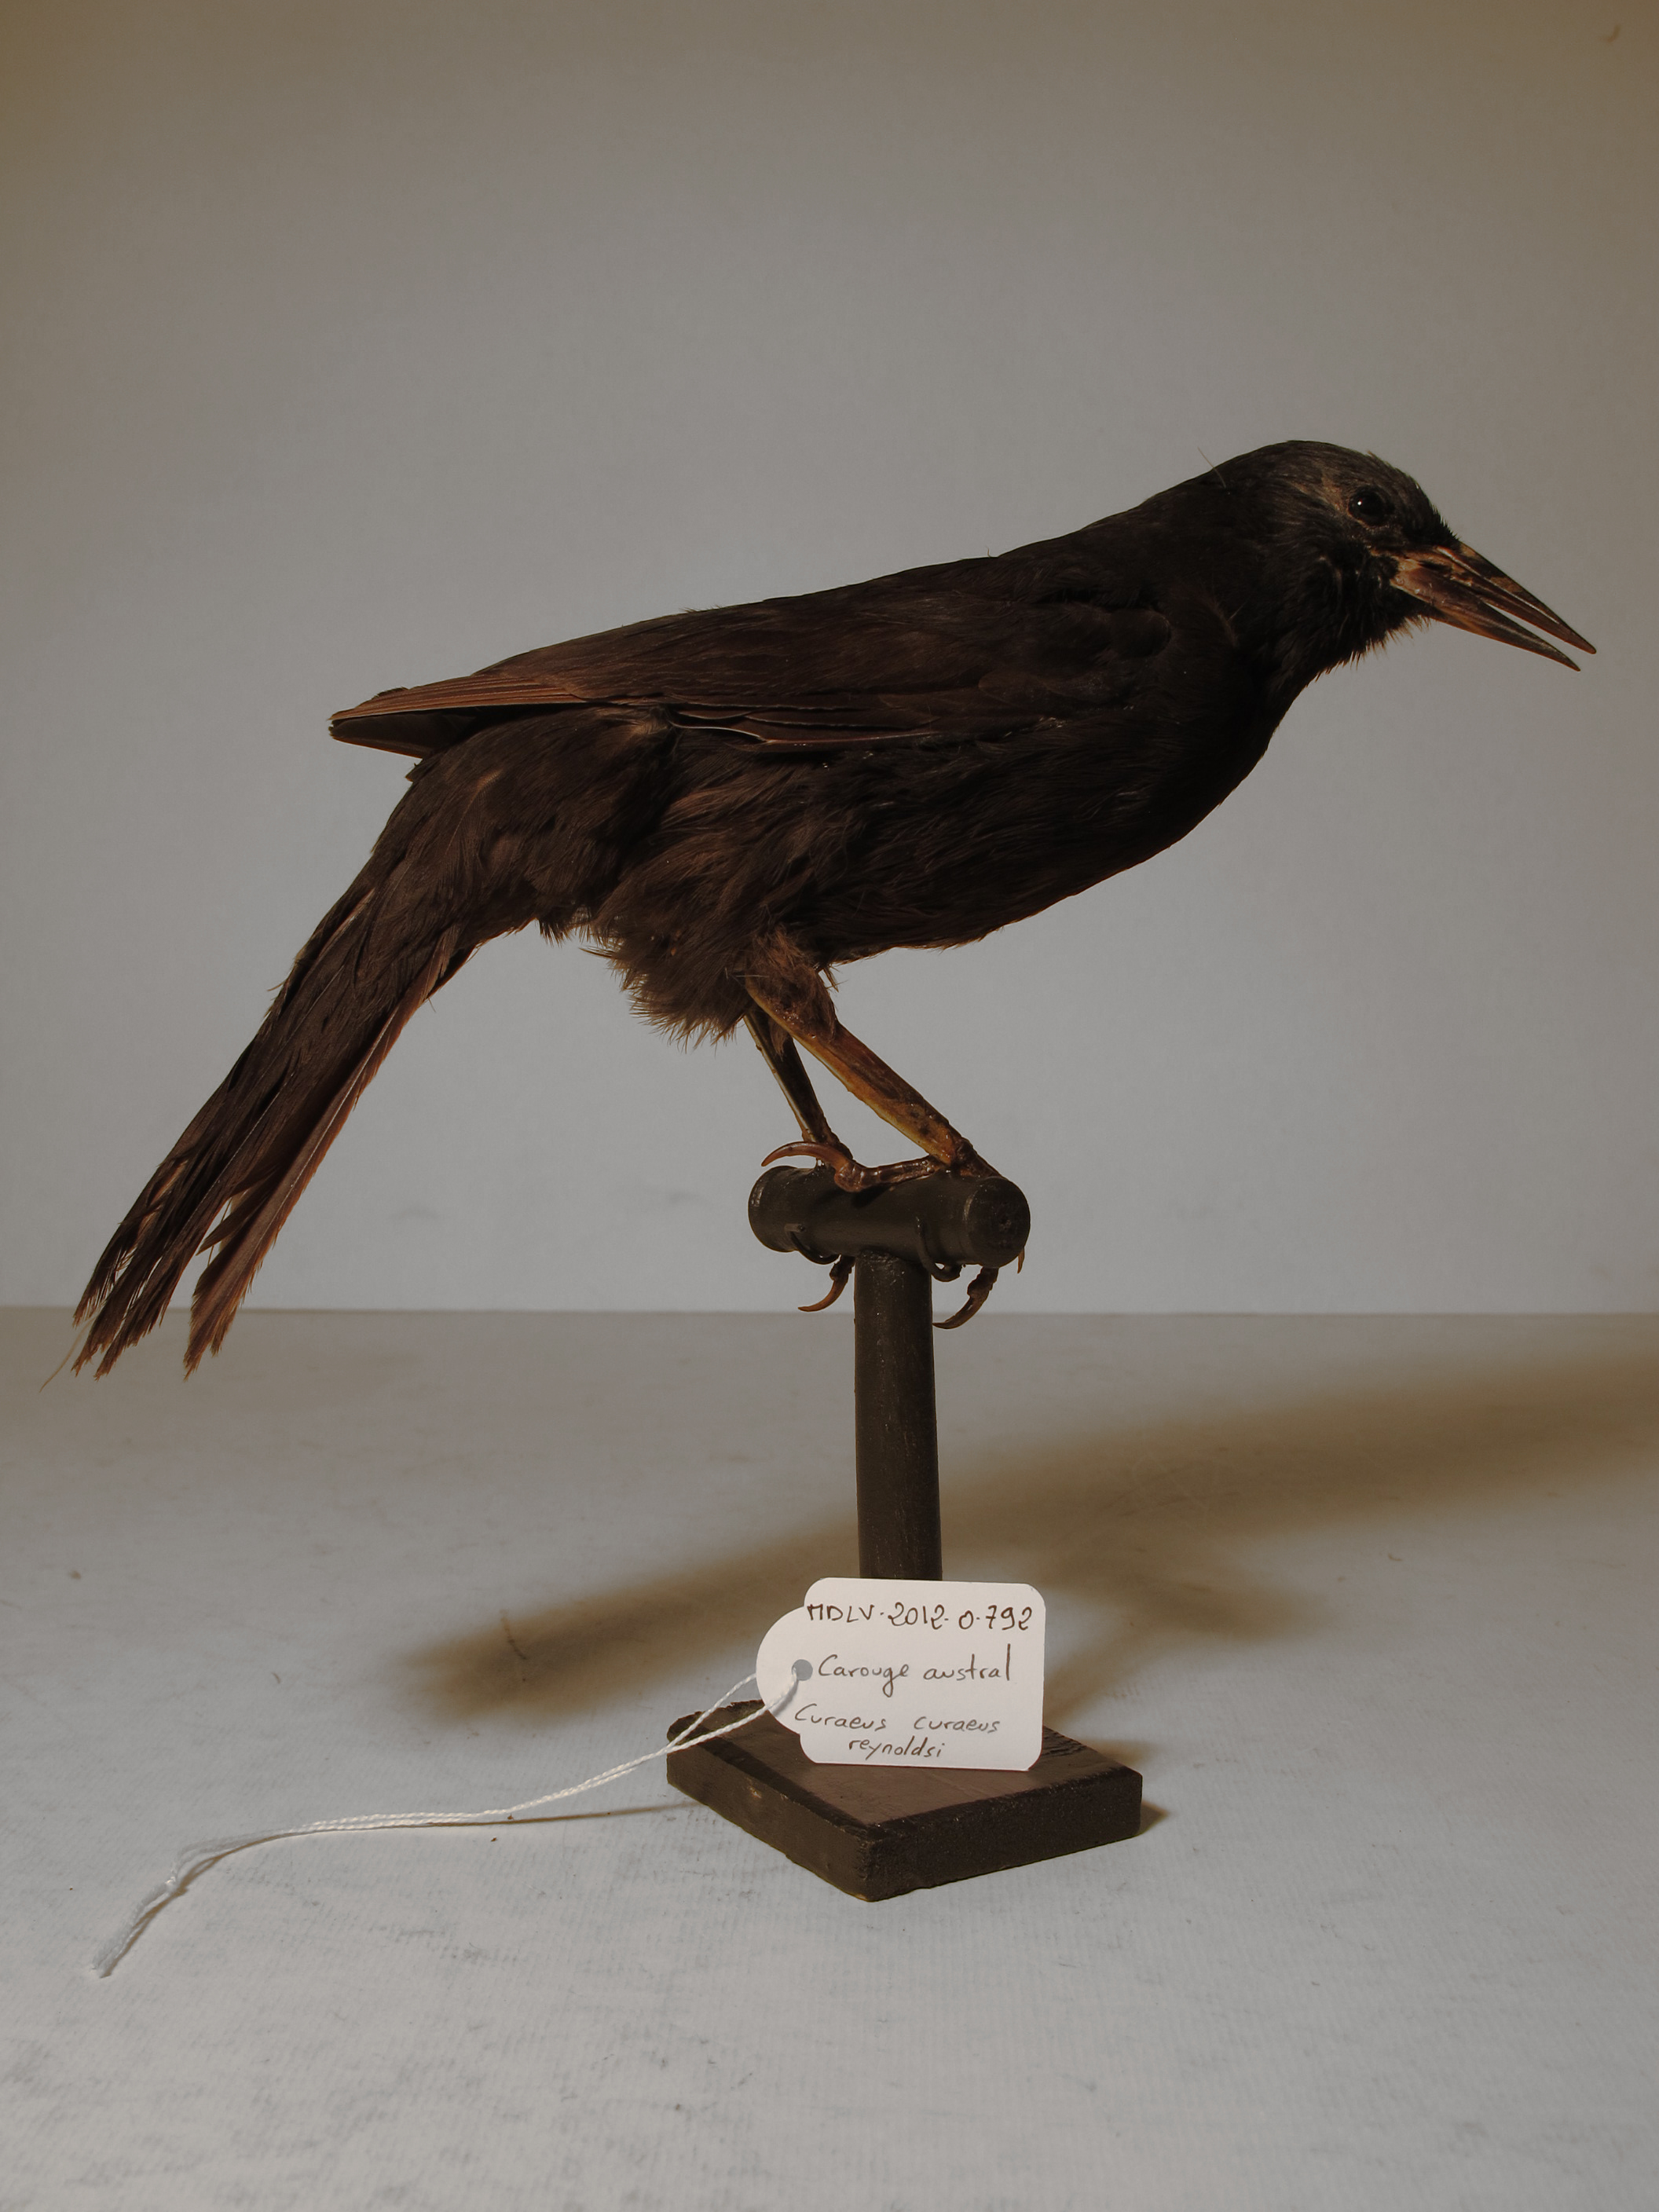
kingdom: Animalia
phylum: Chordata
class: Aves
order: Passeriformes
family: Icteridae
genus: Curaeus
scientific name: Curaeus curaeus
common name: Austral Blackbird
